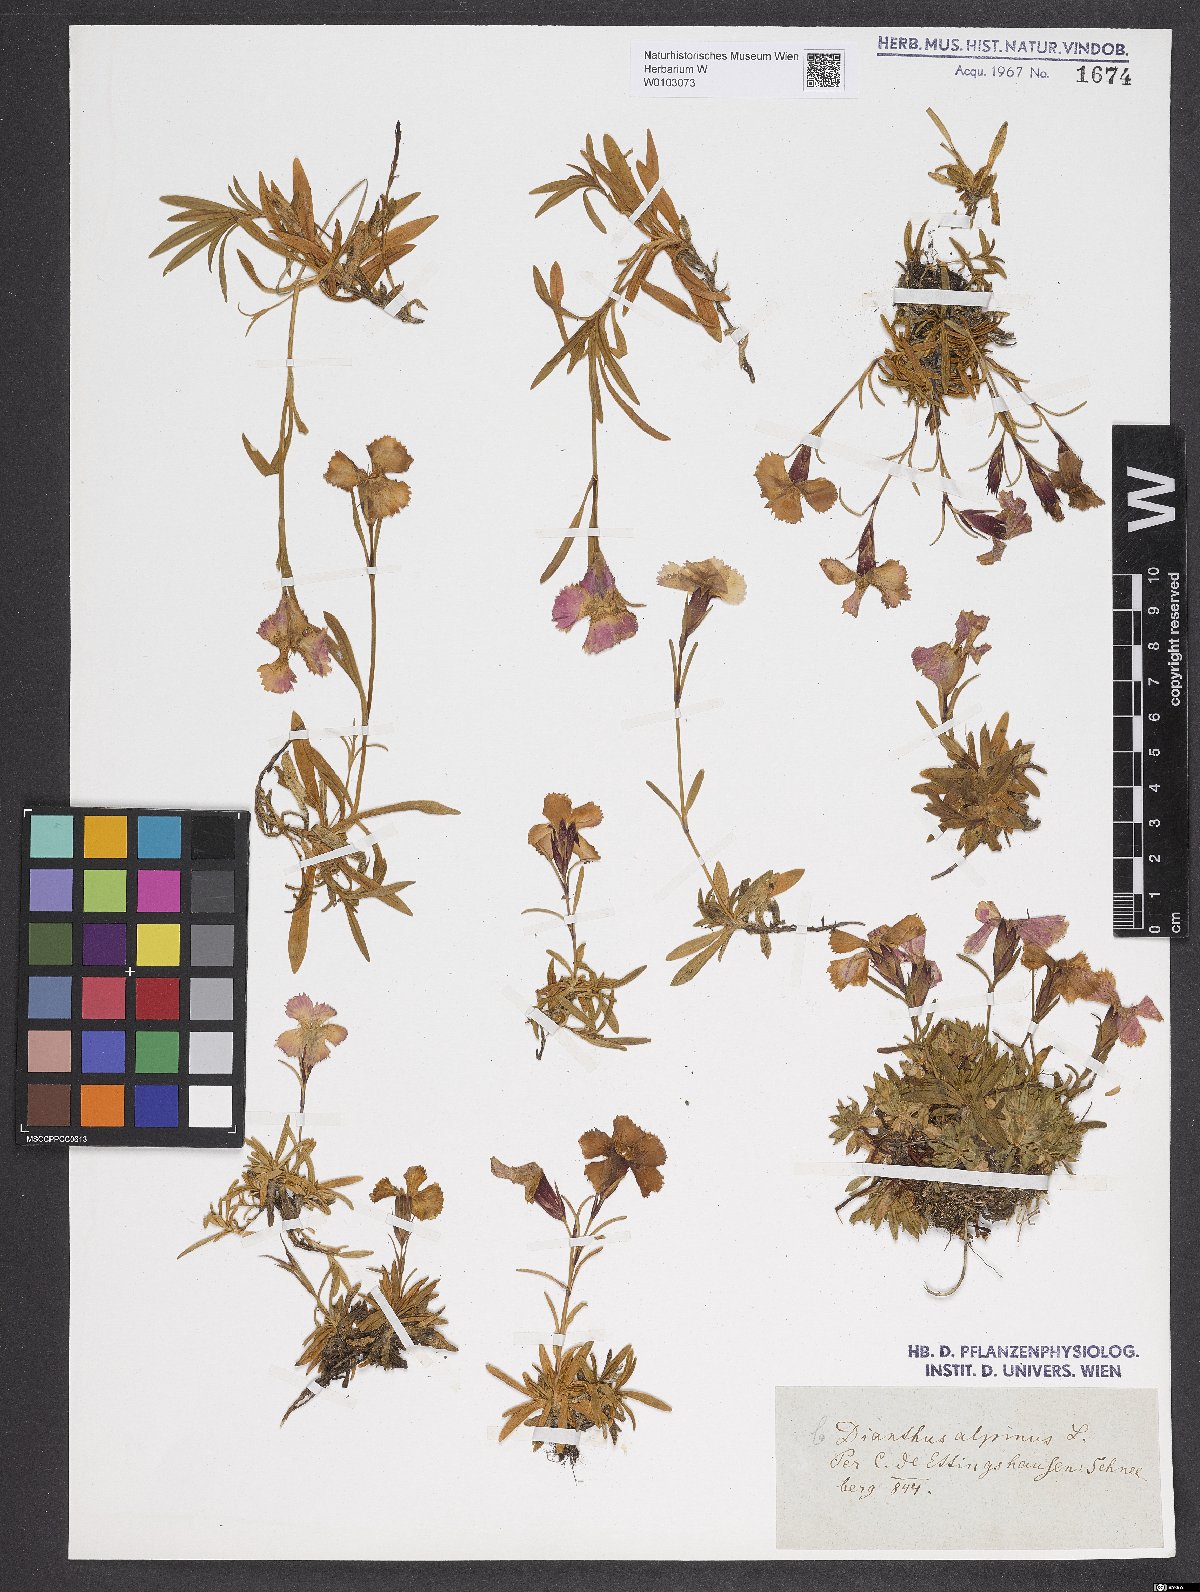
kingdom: Plantae
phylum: Tracheophyta
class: Magnoliopsida
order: Caryophyllales
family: Caryophyllaceae
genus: Dianthus
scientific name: Dianthus alpinus
